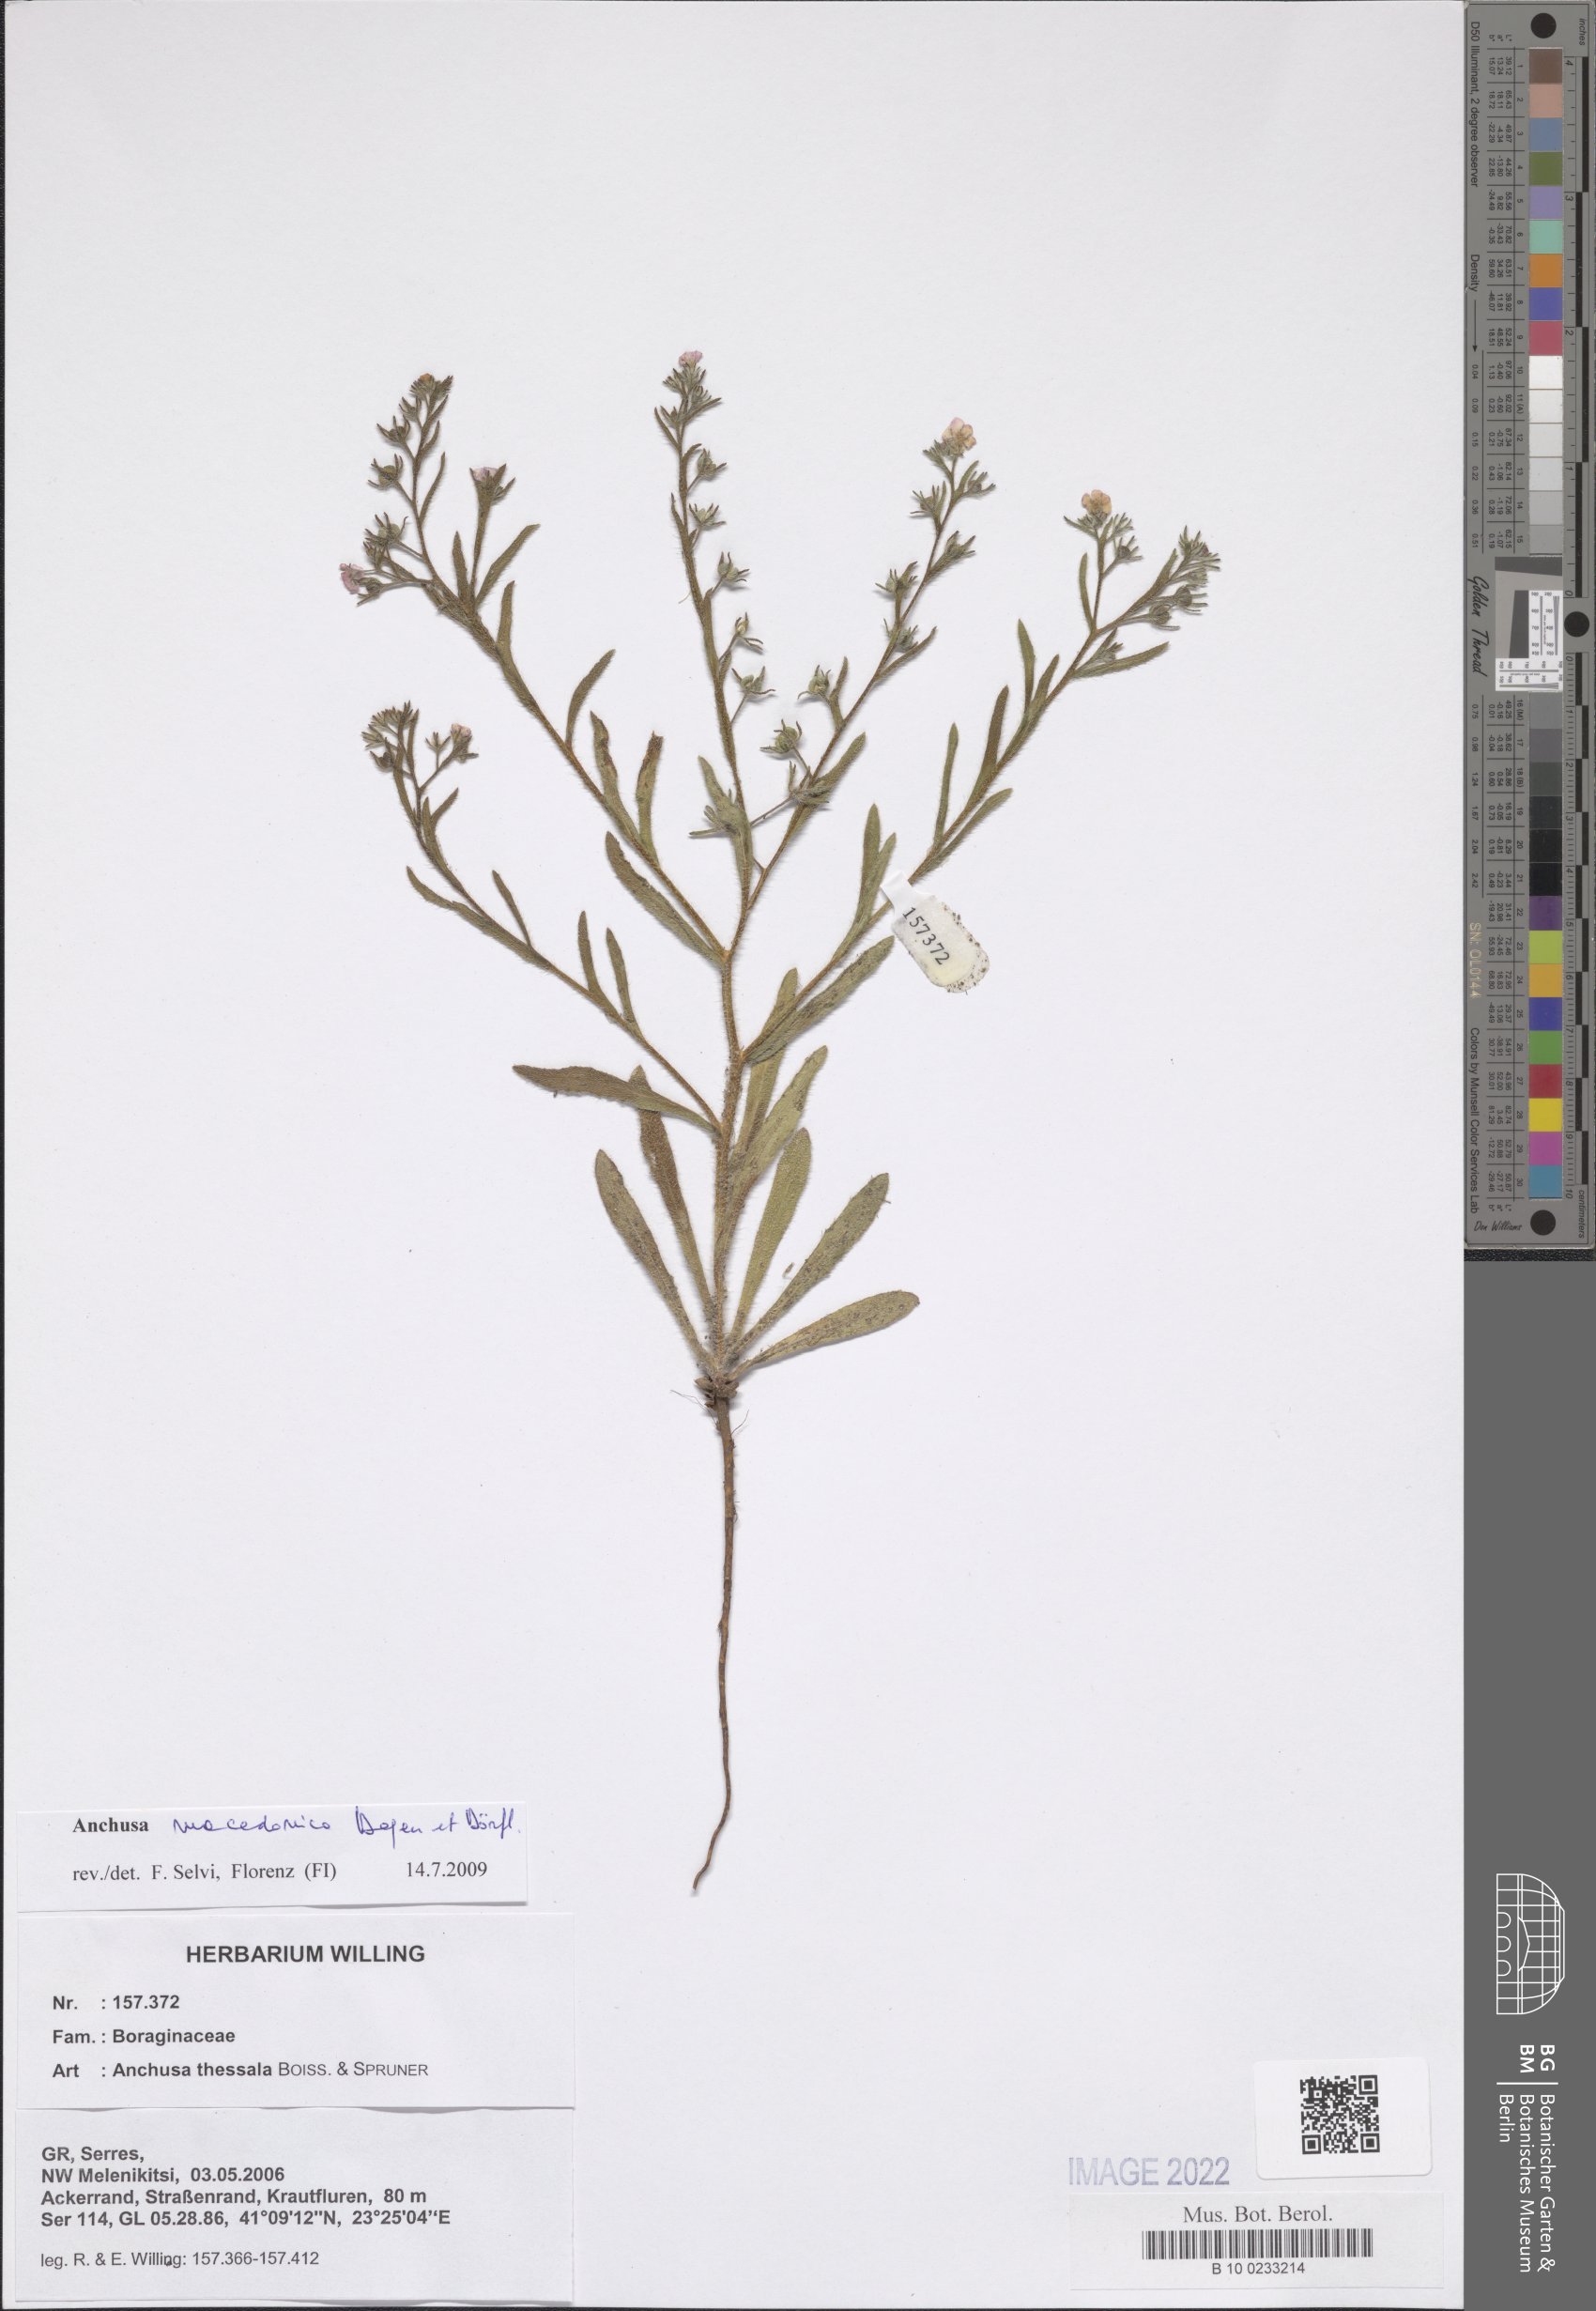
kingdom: Plantae
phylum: Tracheophyta
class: Magnoliopsida
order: Boraginales
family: Boraginaceae
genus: Gastrocotyle
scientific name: Gastrocotyle macedonica
